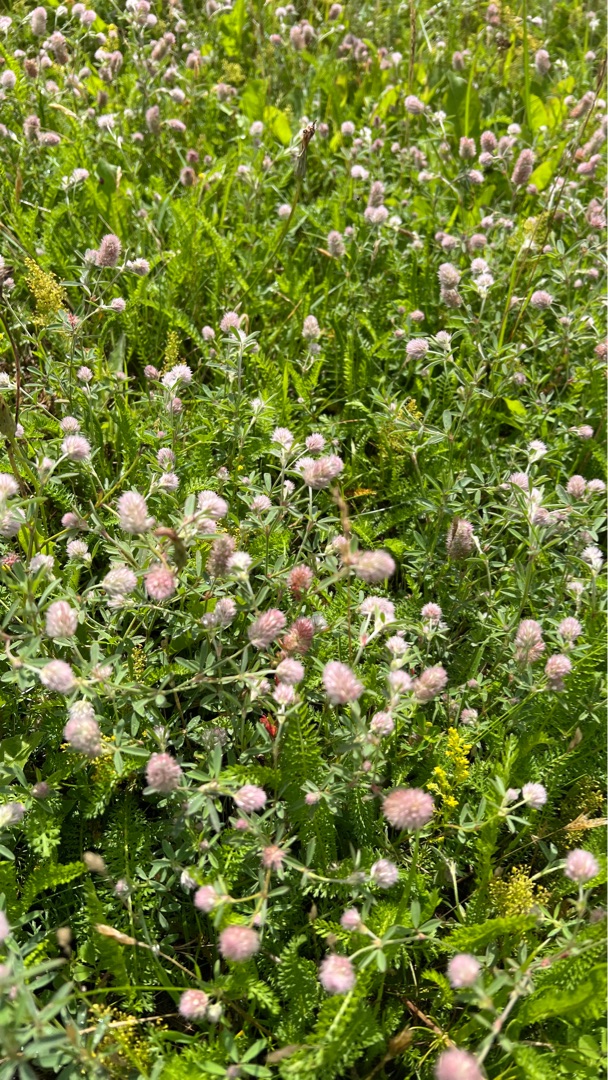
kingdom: Plantae
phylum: Tracheophyta
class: Magnoliopsida
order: Fabales
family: Fabaceae
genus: Trifolium
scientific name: Trifolium arvense
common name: Hare-kløver
